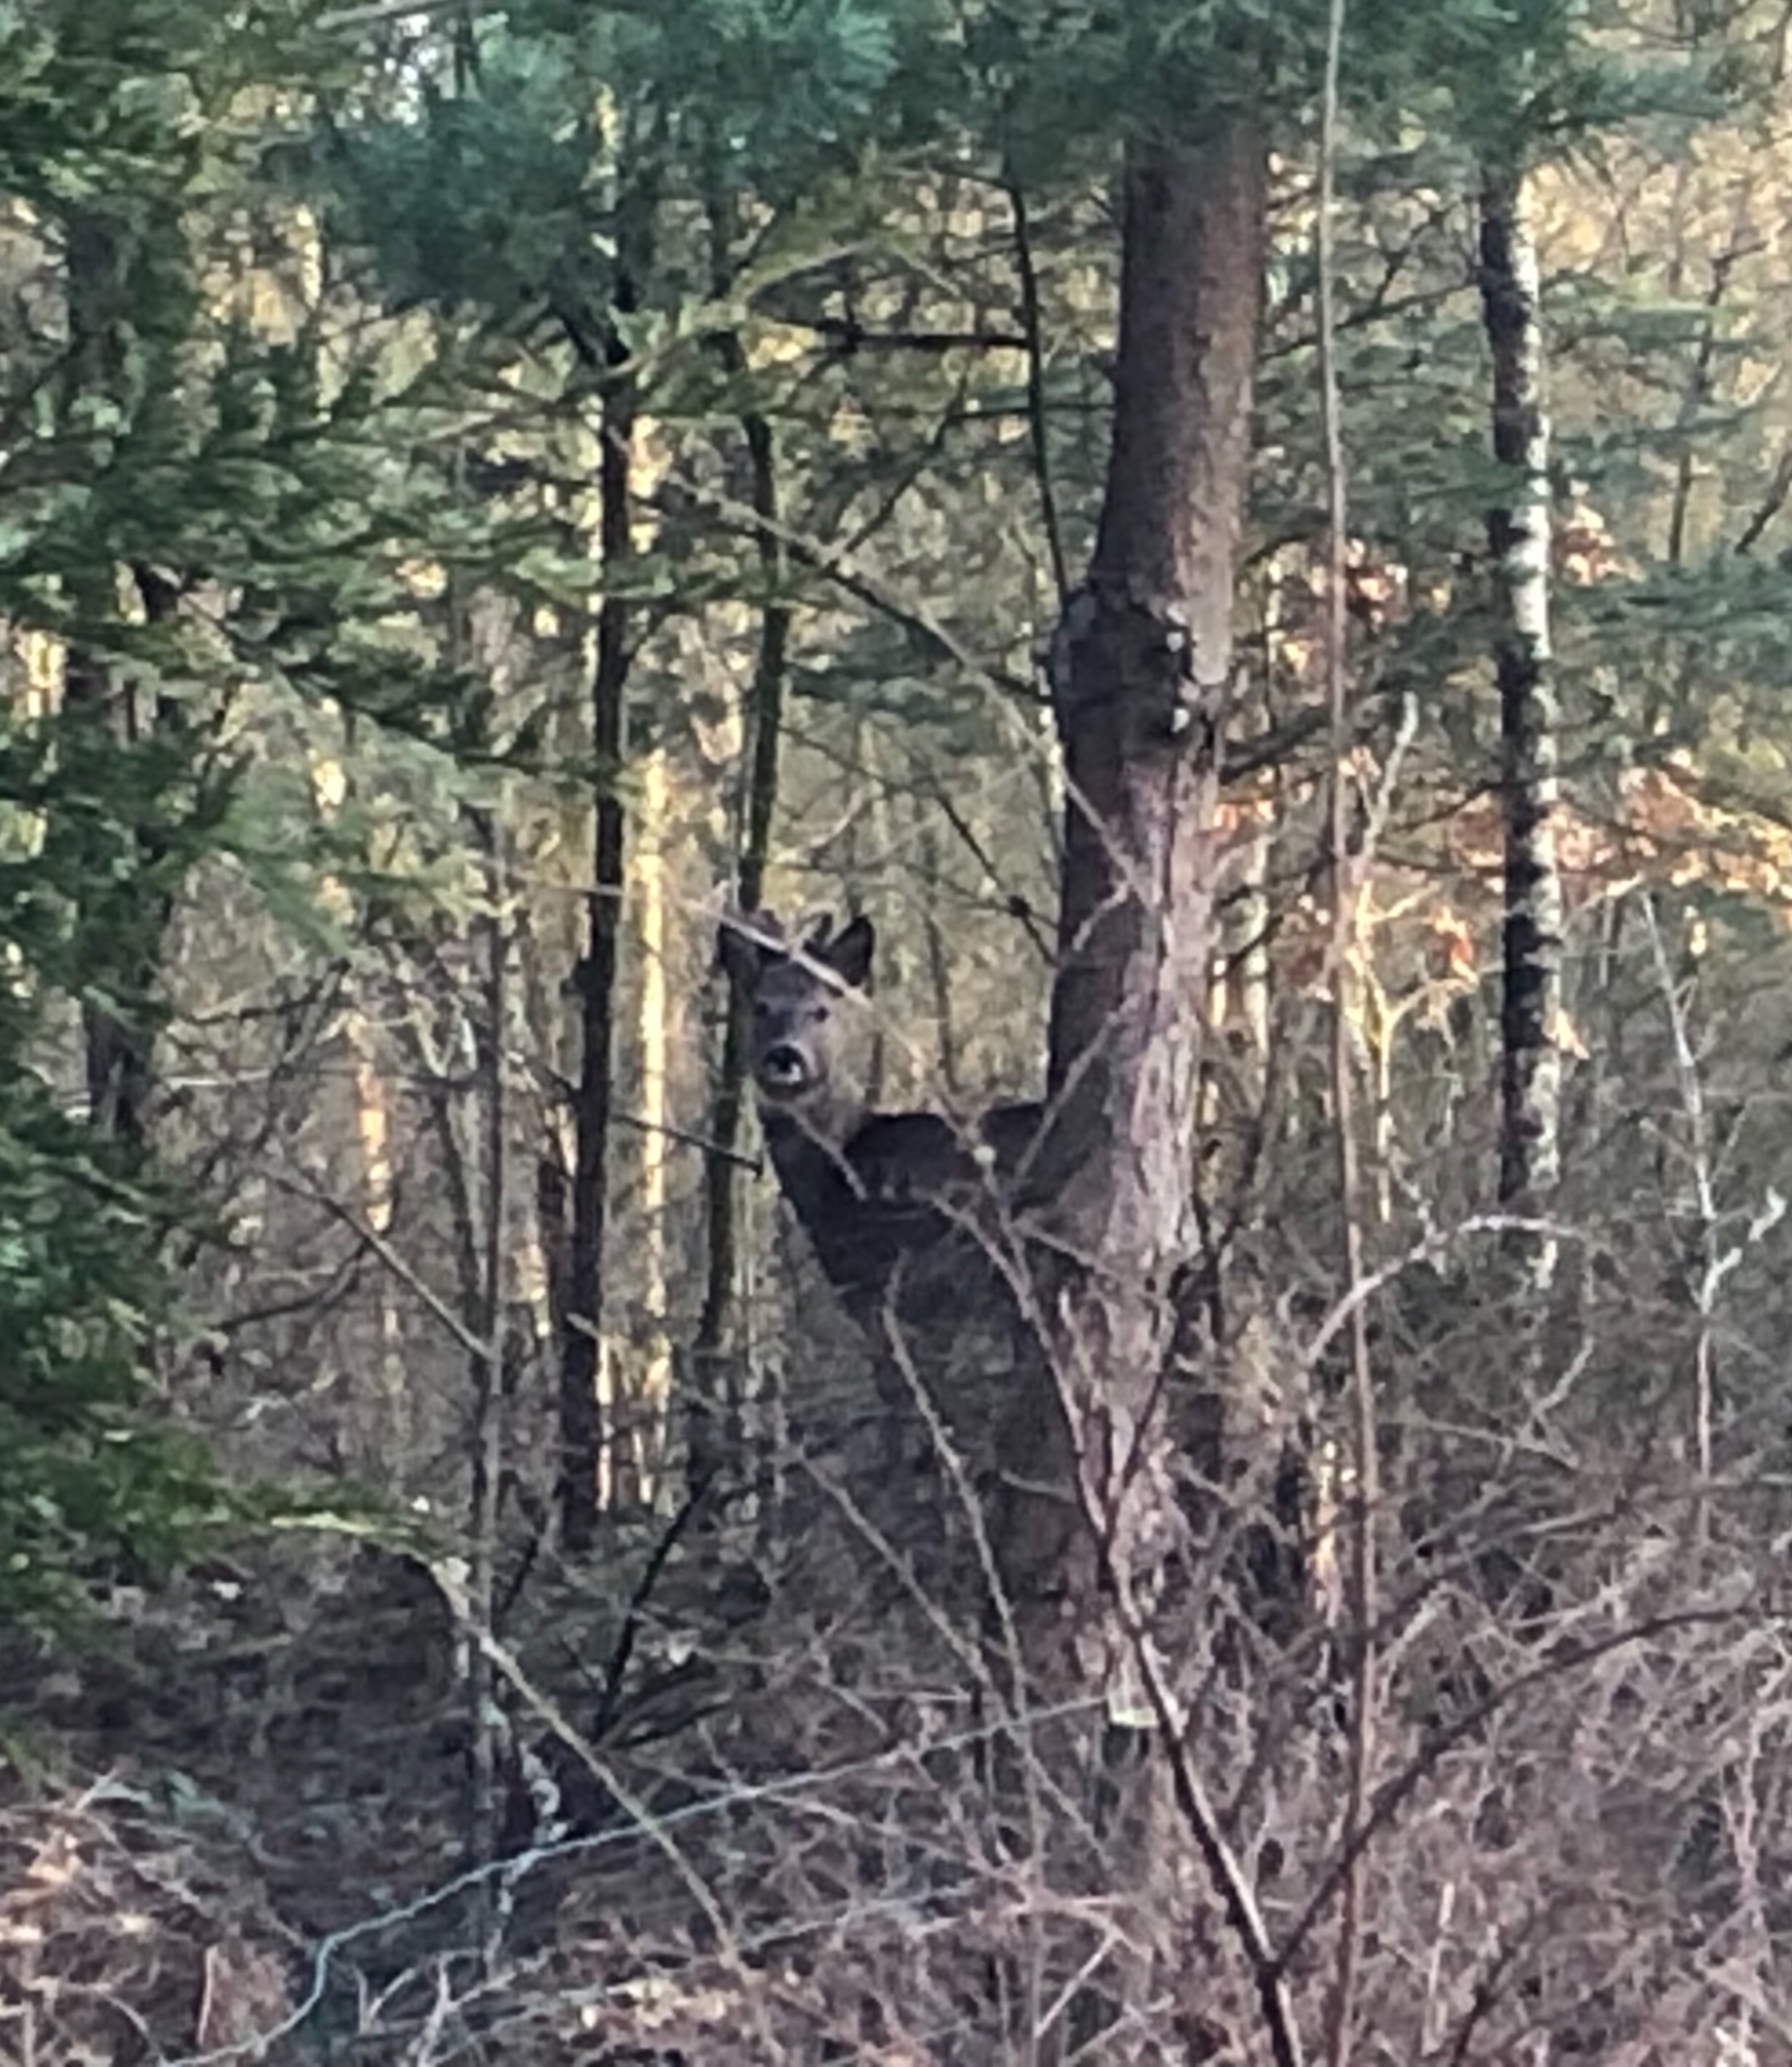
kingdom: Animalia
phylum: Chordata
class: Mammalia
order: Artiodactyla
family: Cervidae
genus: Capreolus
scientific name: Capreolus capreolus
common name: Rådyr
